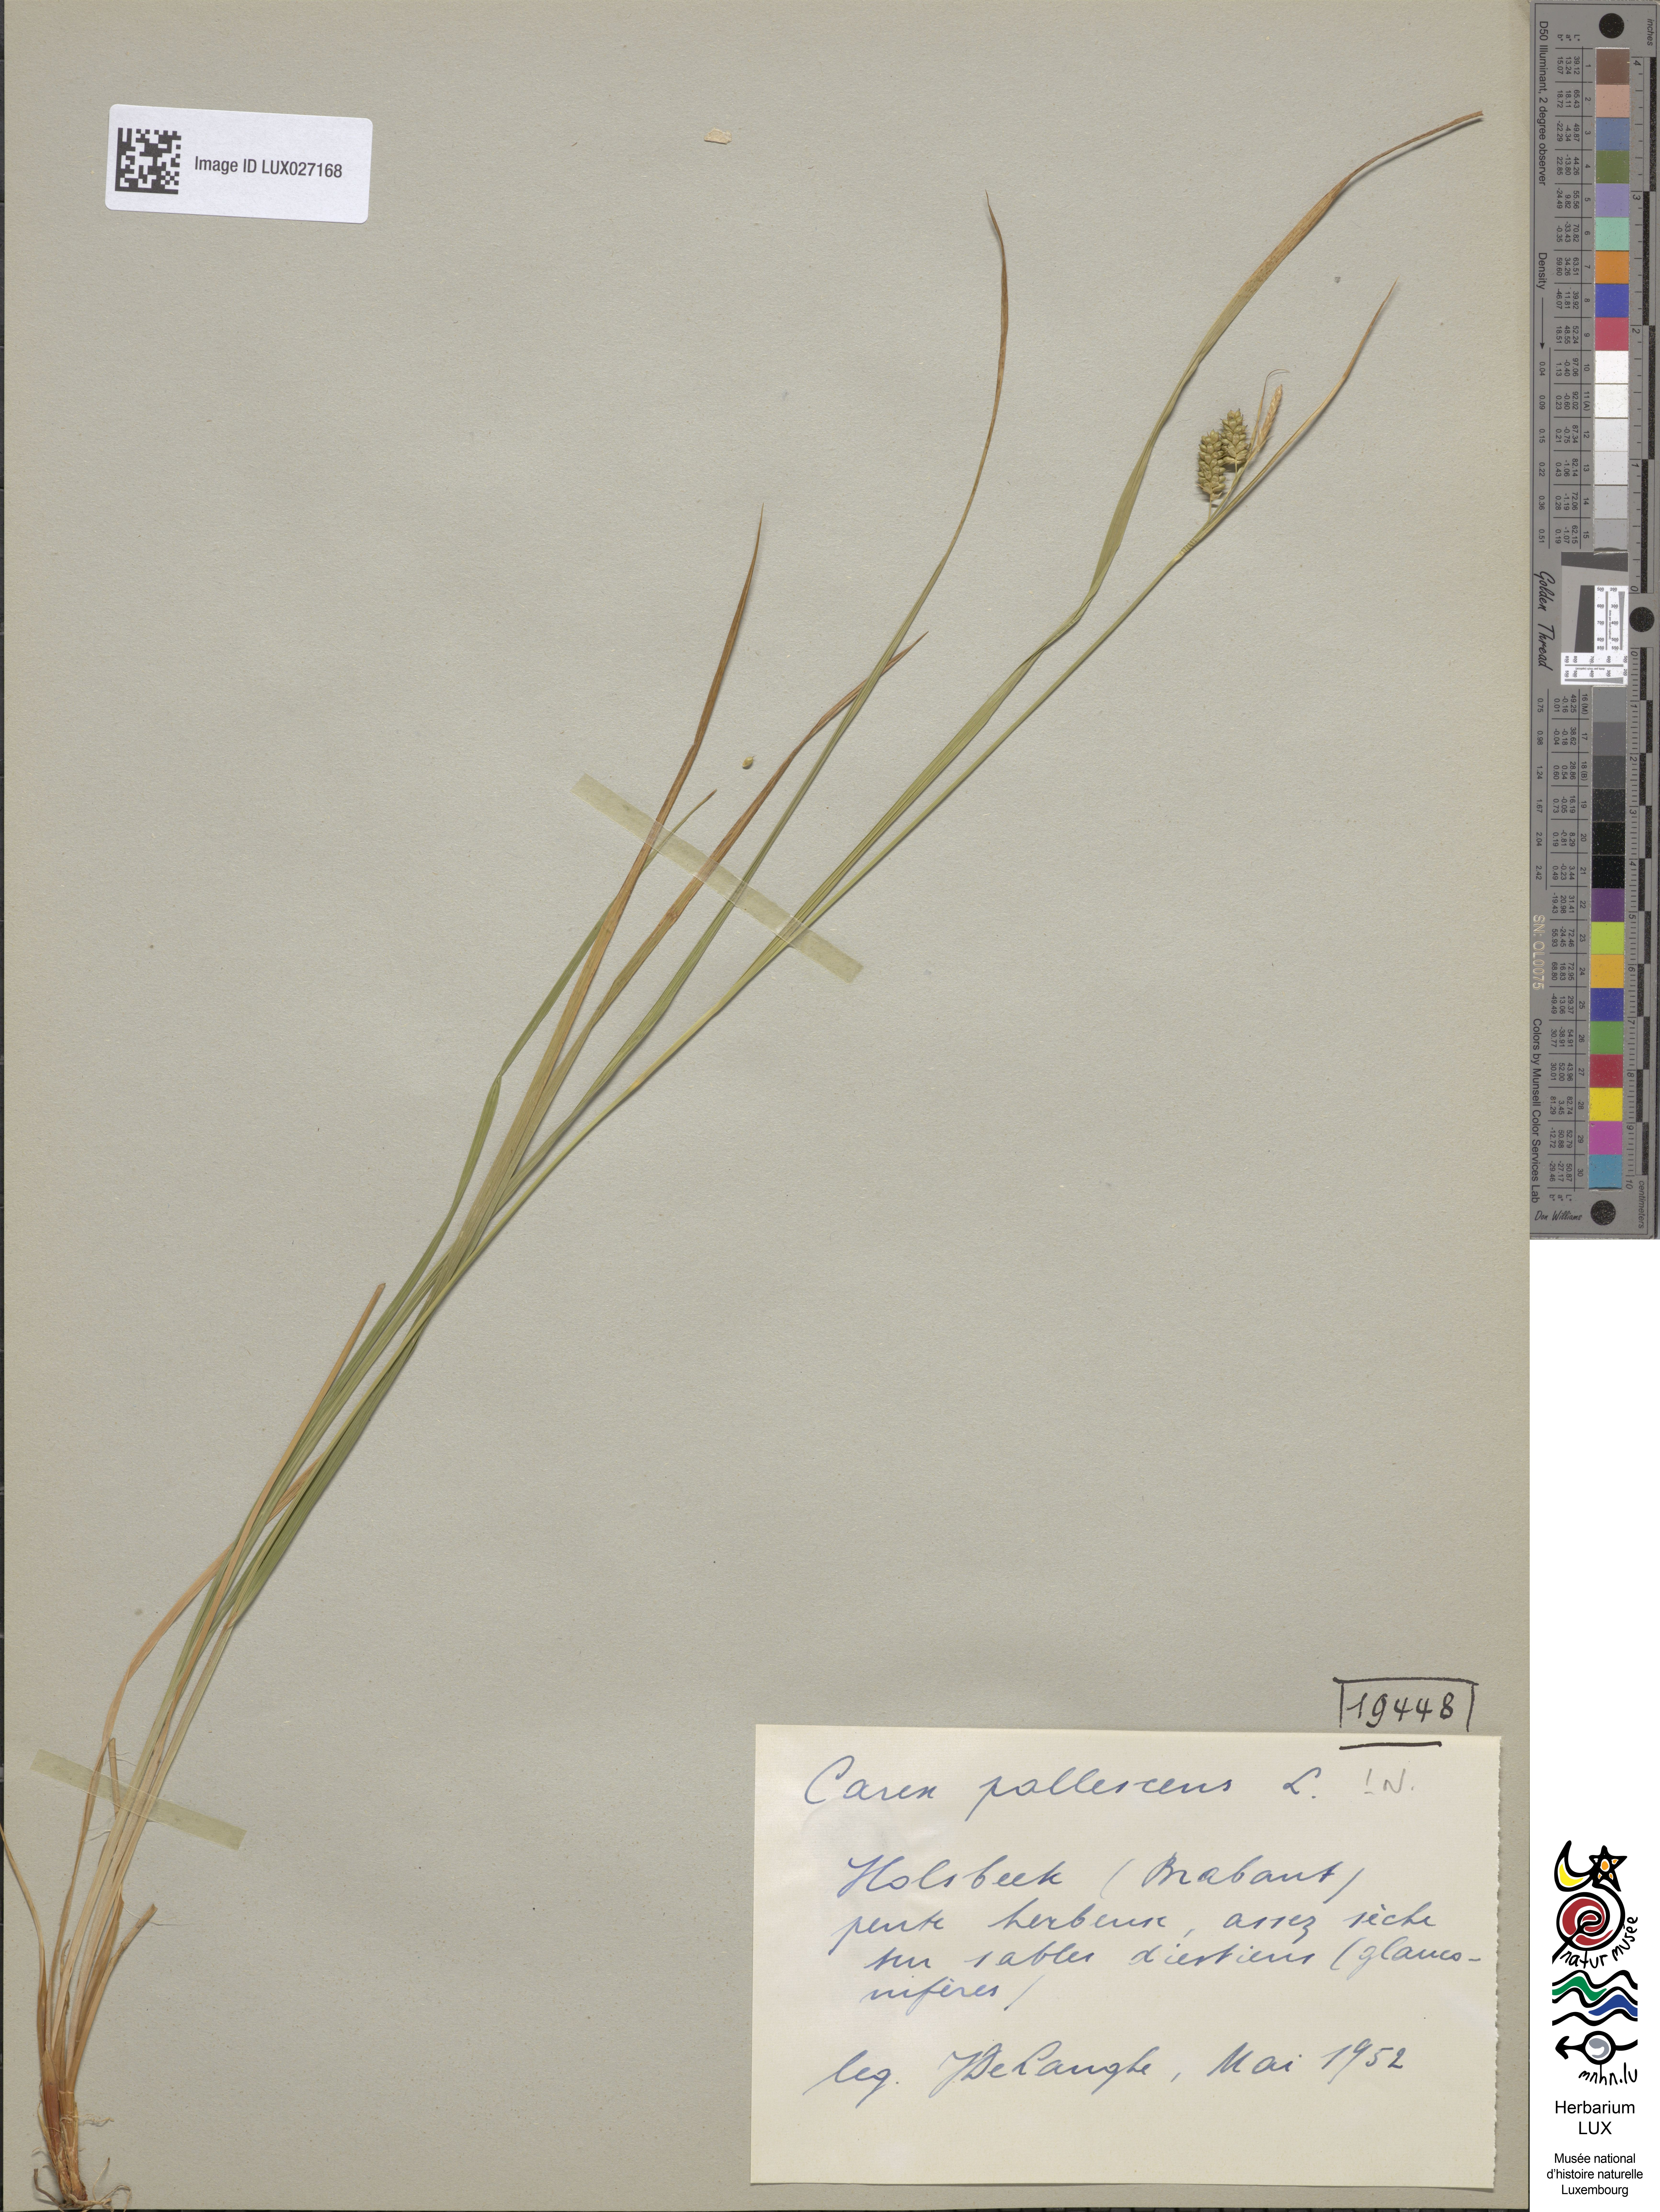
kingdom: Plantae
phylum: Tracheophyta
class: Liliopsida
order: Poales
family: Cyperaceae
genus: Carex
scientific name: Carex pallescens
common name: Pale sedge
